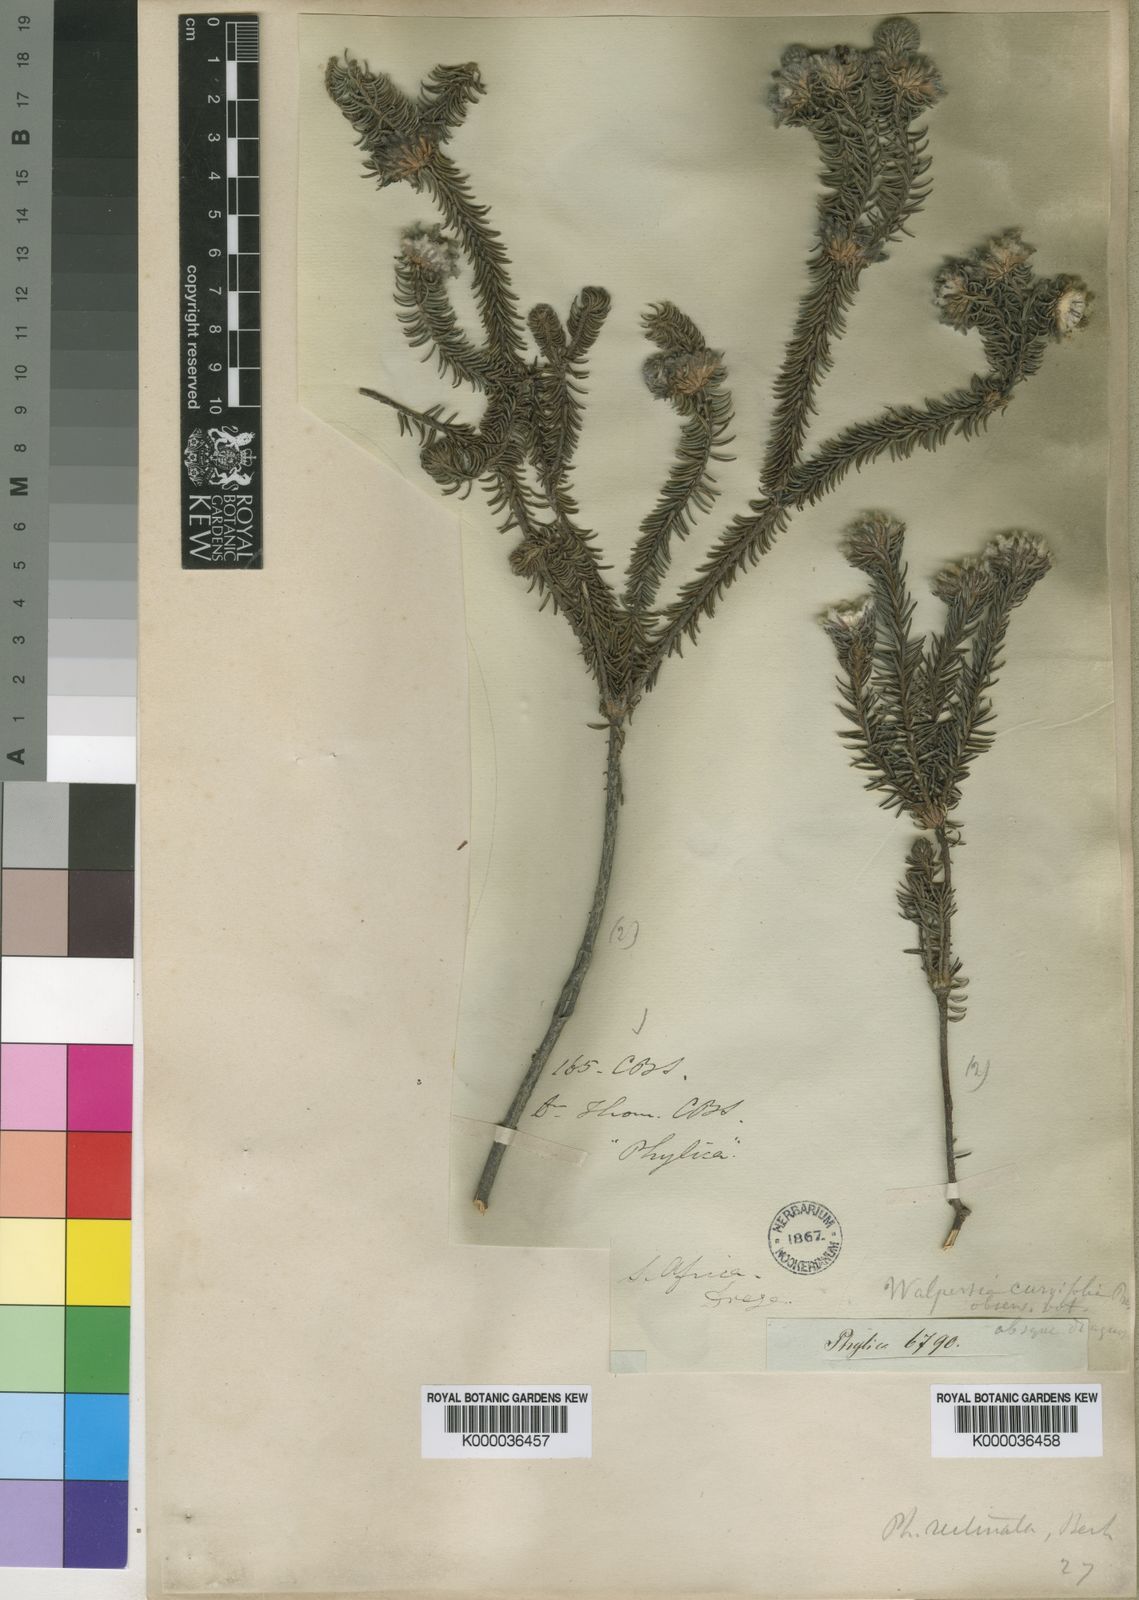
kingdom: Plantae
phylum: Tracheophyta
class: Magnoliopsida
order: Rosales
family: Rhamnaceae
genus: Phylica
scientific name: Phylica curvifolia
